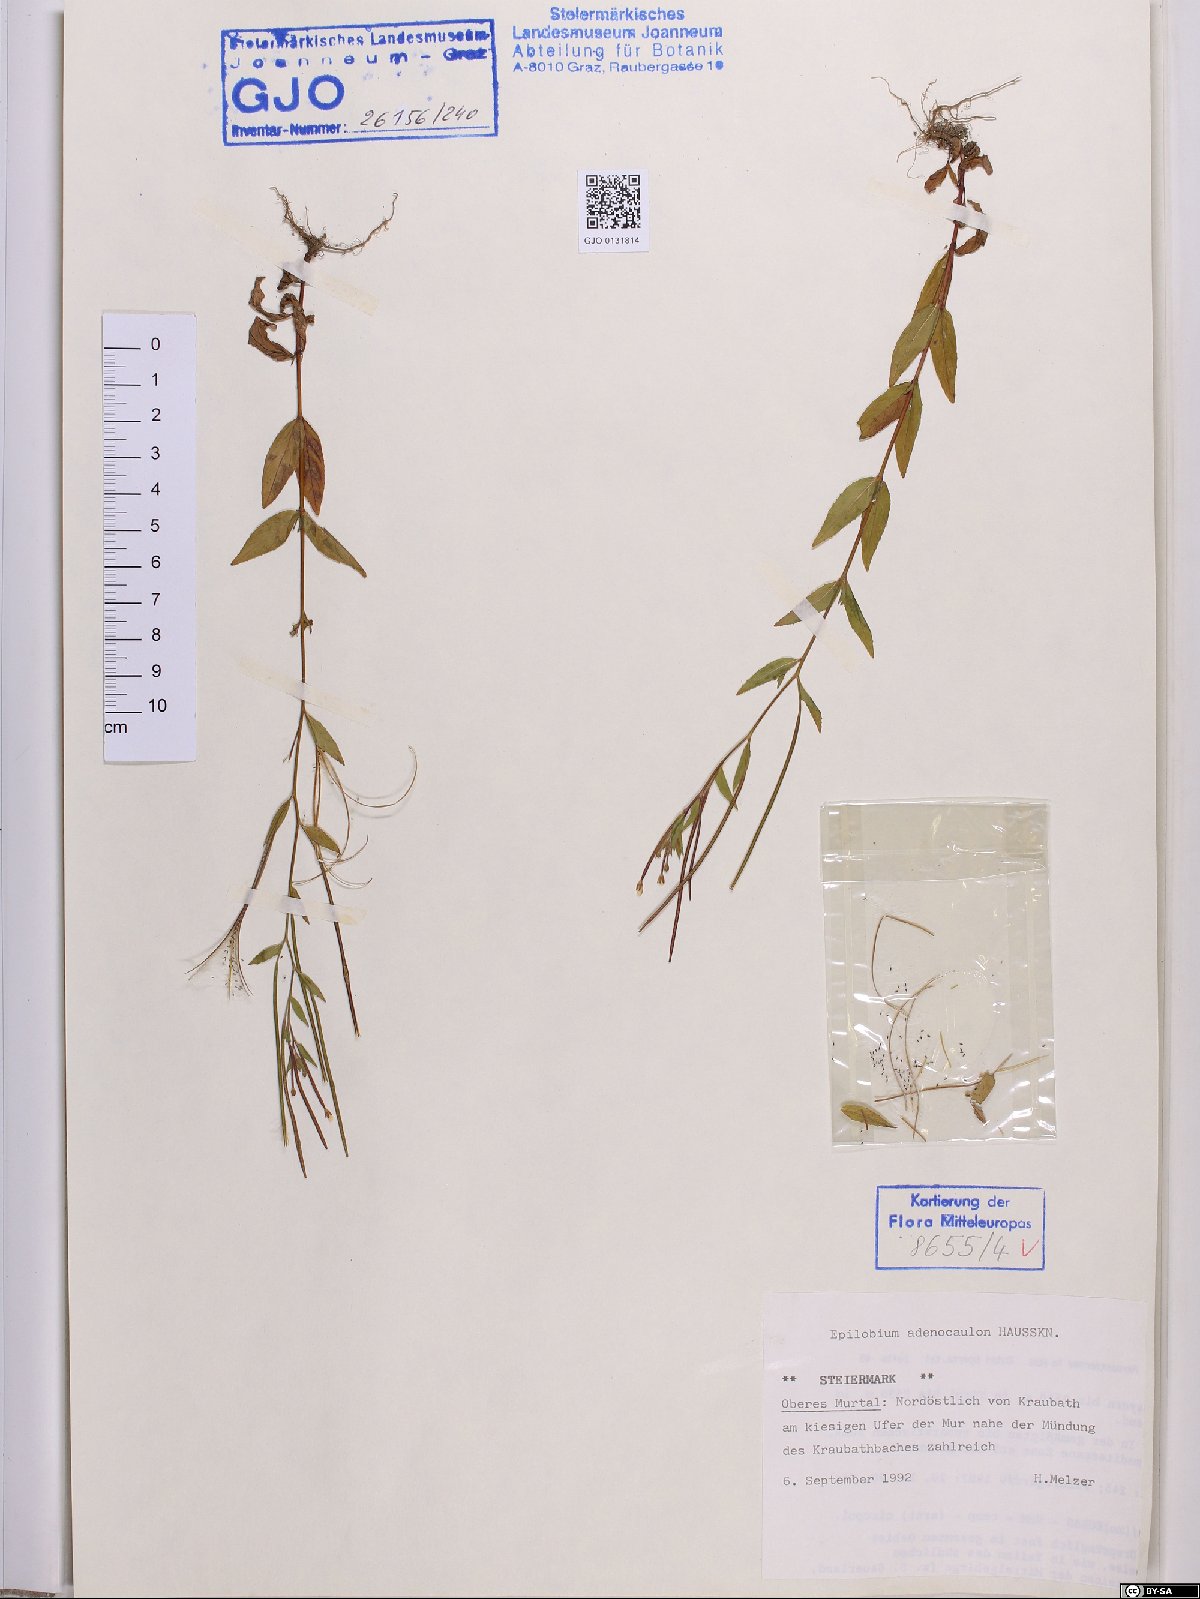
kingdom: Plantae
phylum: Tracheophyta
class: Magnoliopsida
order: Myrtales
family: Onagraceae
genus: Epilobium
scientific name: Epilobium ciliatum
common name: American willowherb
